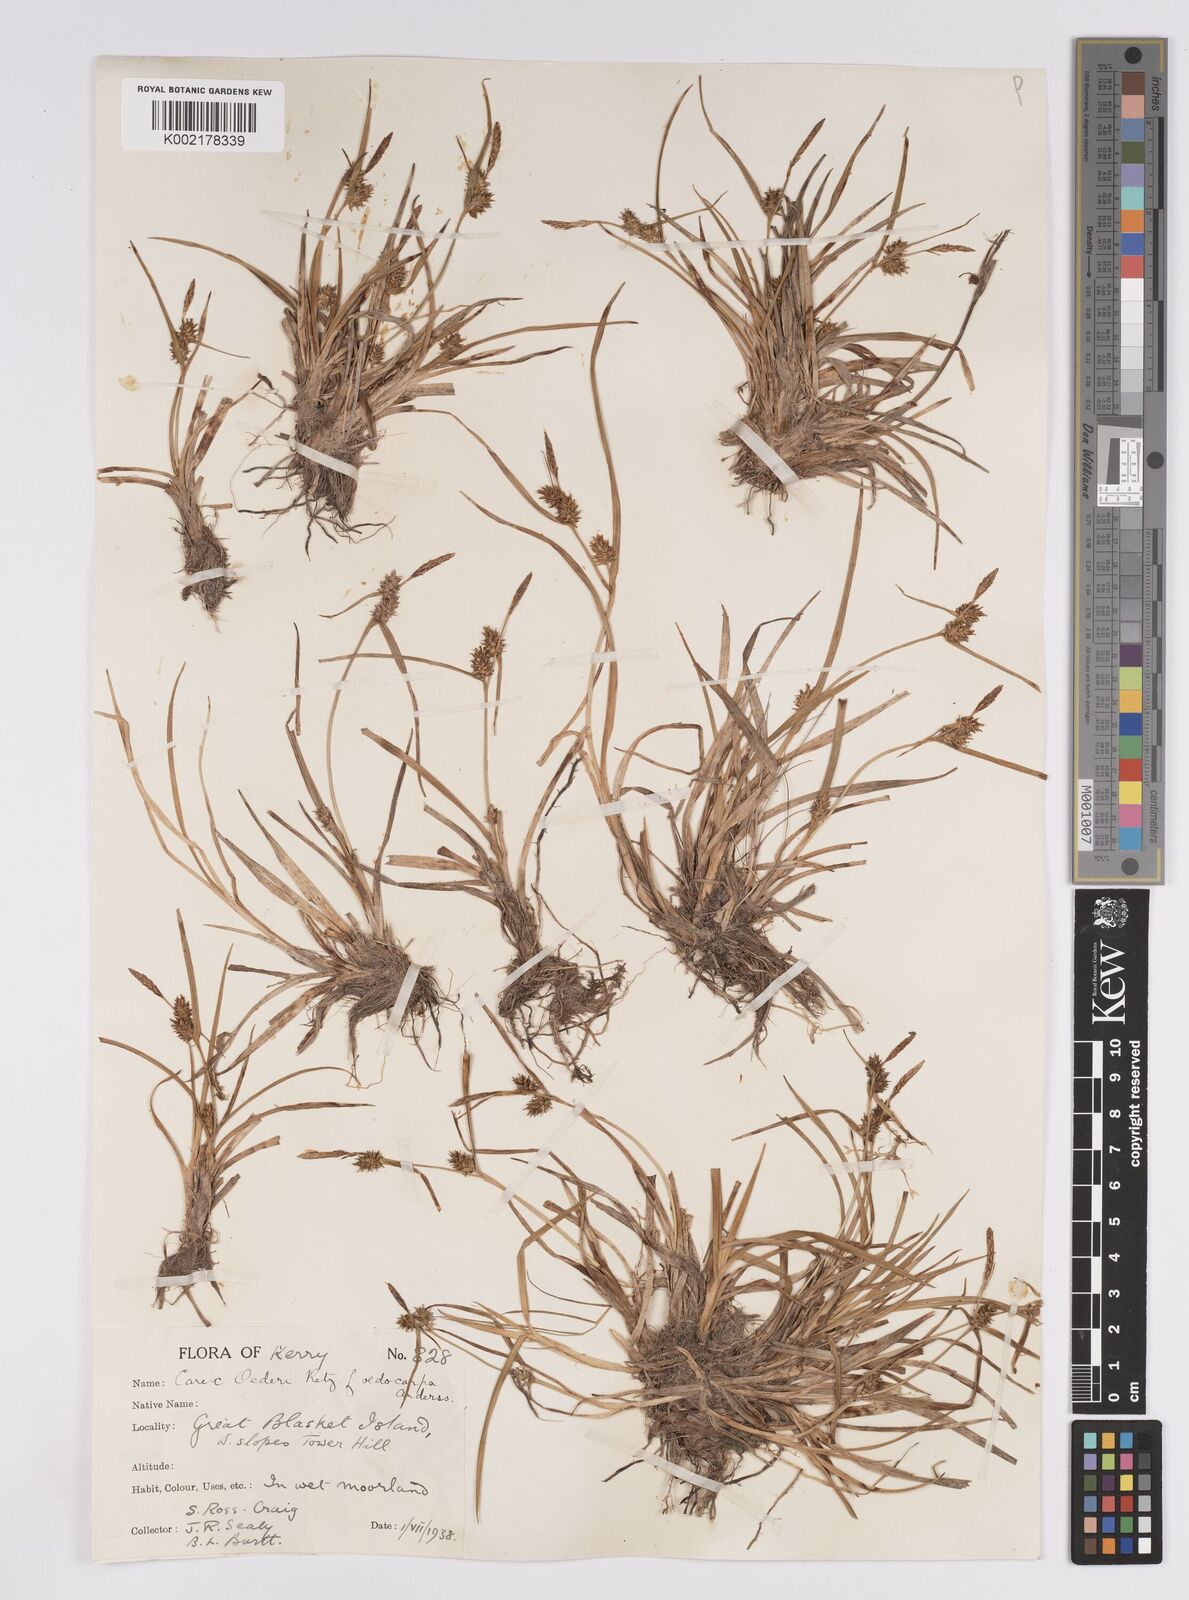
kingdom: Plantae
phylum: Tracheophyta
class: Liliopsida
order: Poales
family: Cyperaceae
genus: Carex
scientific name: Carex demissa
